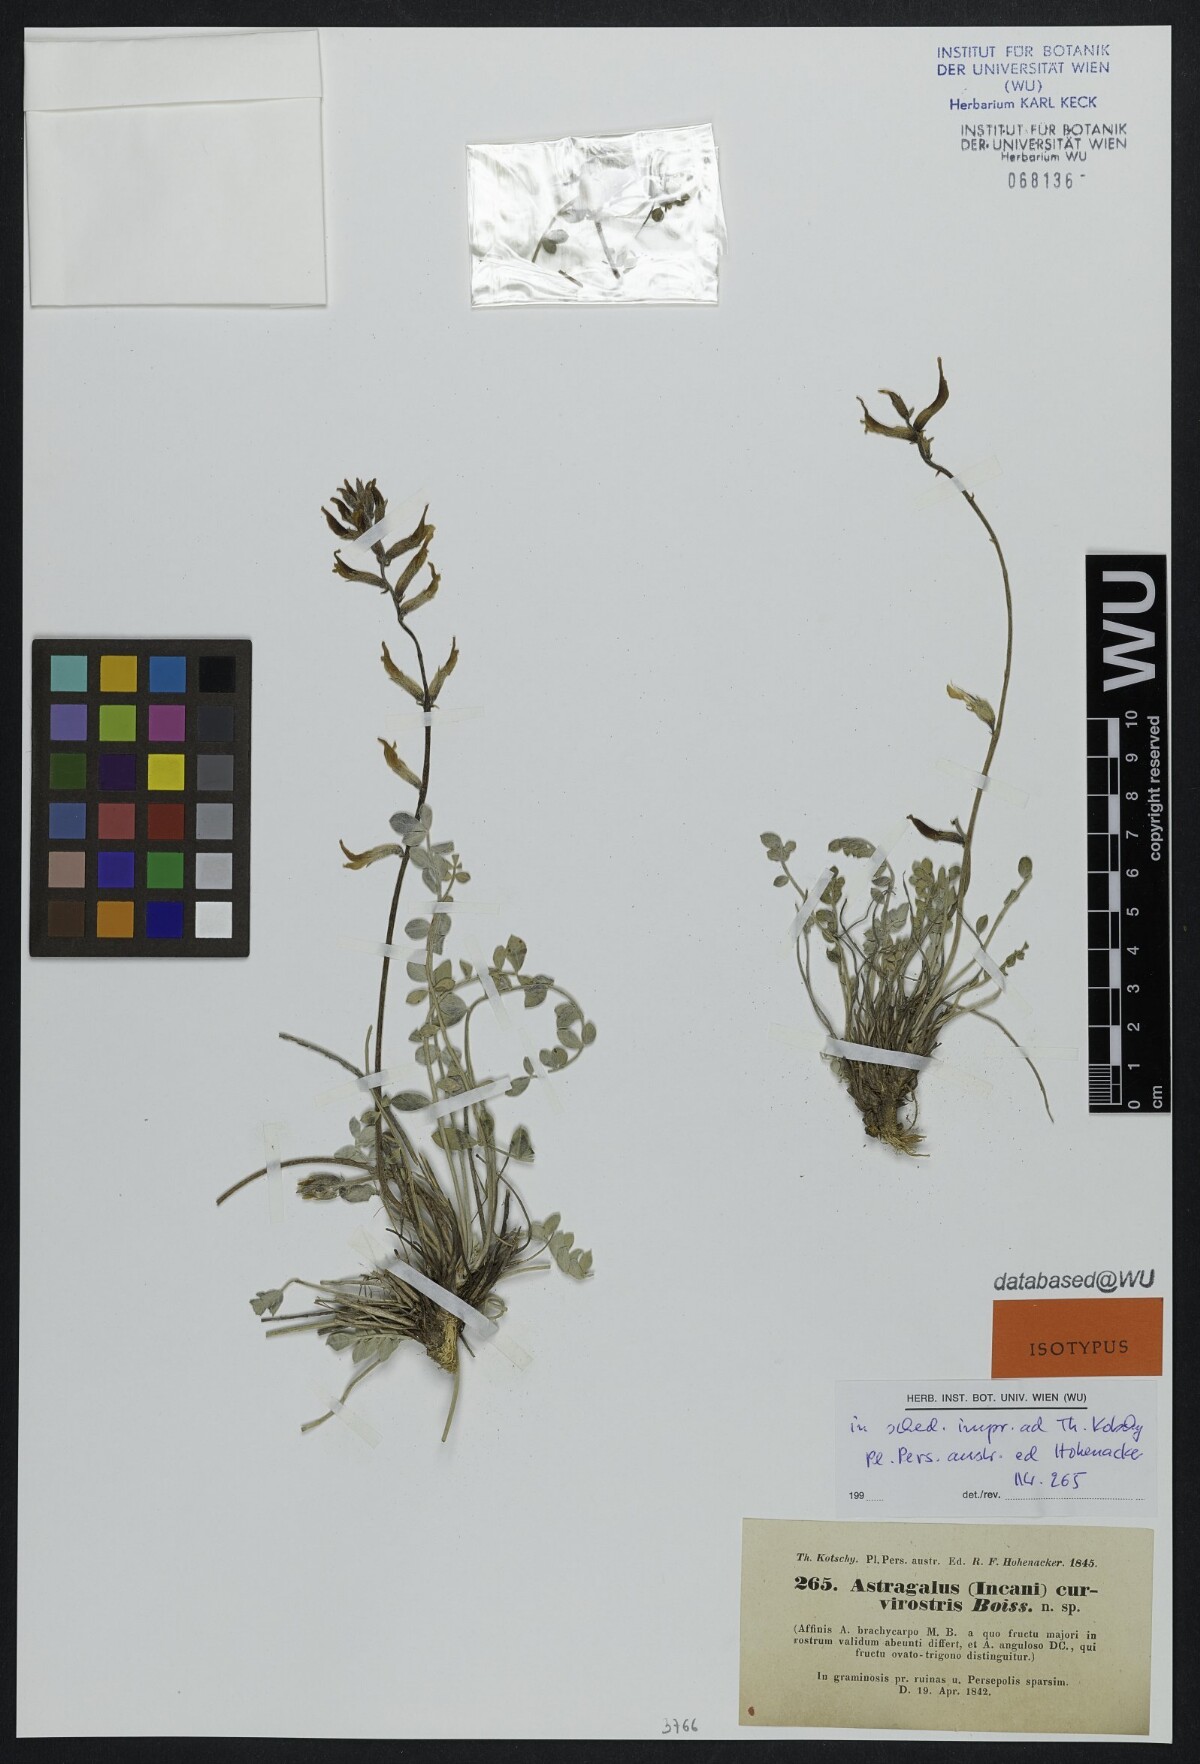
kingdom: Plantae
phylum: Tracheophyta
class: Magnoliopsida
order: Fabales
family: Fabaceae
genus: Astragalus
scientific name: Astragalus curvirostris
